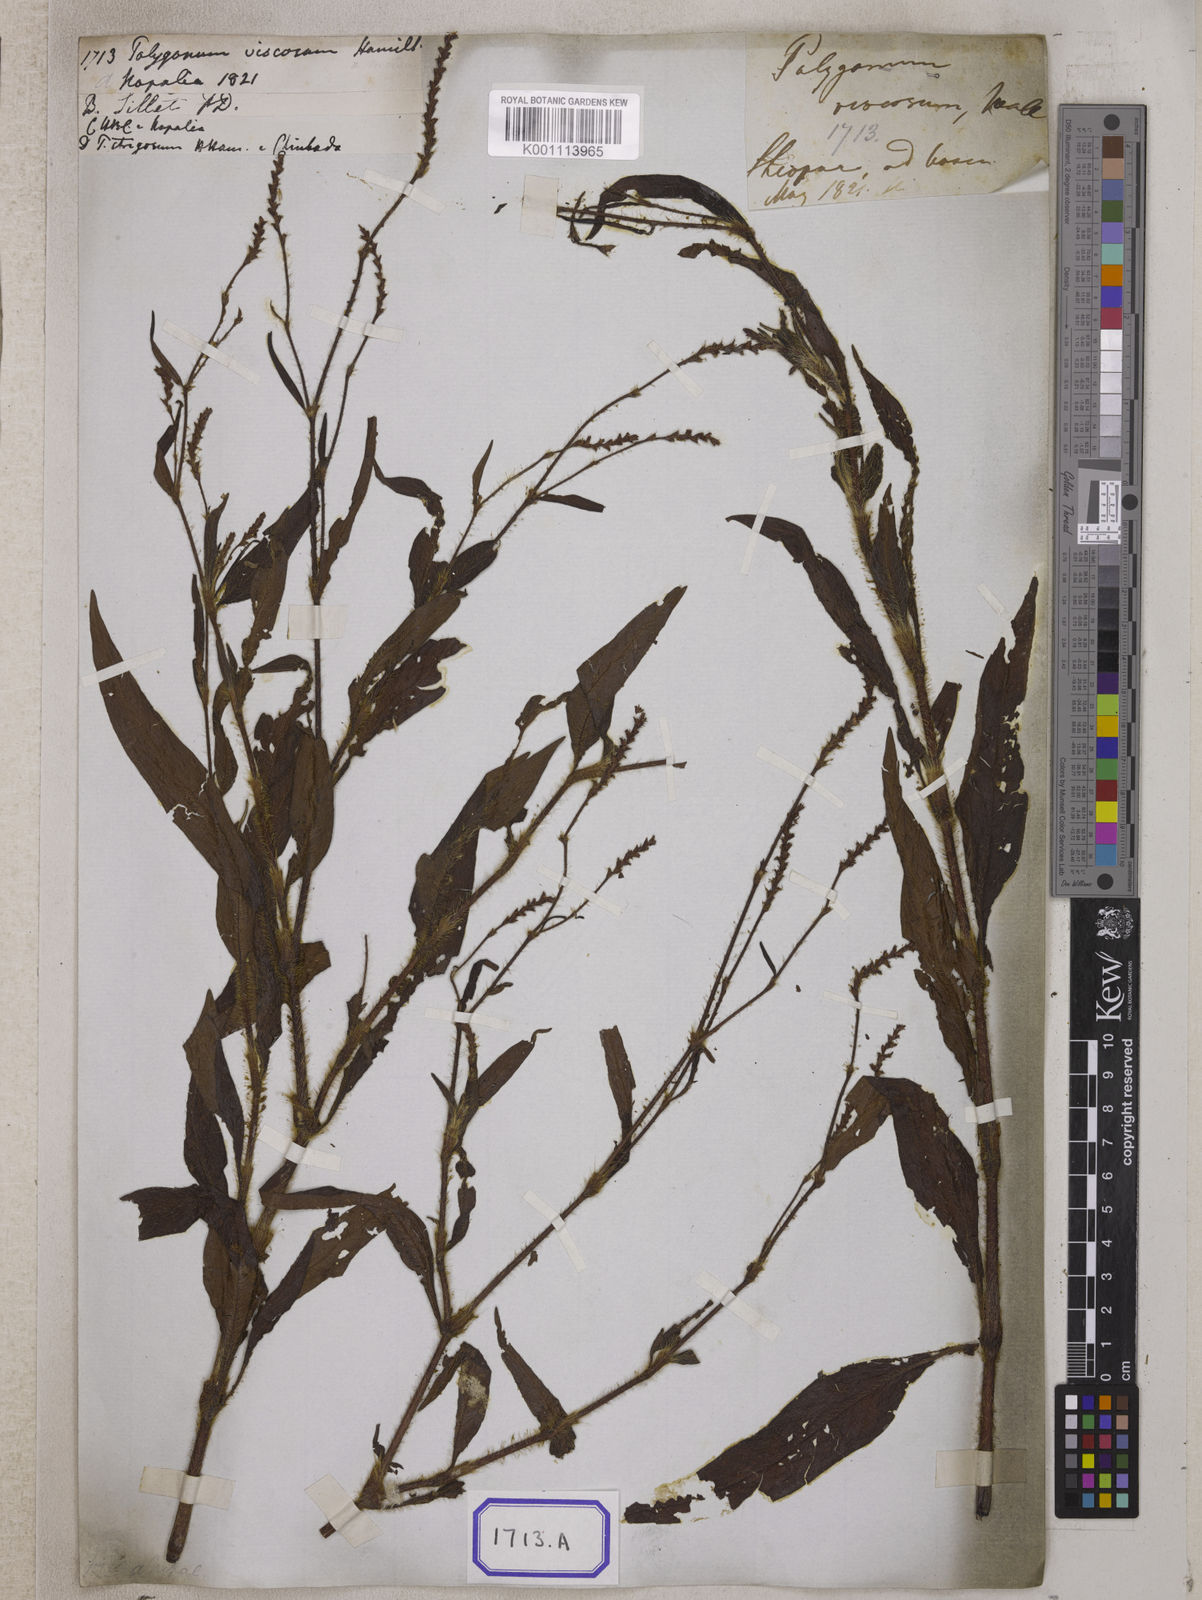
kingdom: Plantae
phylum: Tracheophyta
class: Magnoliopsida
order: Caryophyllales
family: Polygonaceae
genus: Polygonum
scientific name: Polygonum
